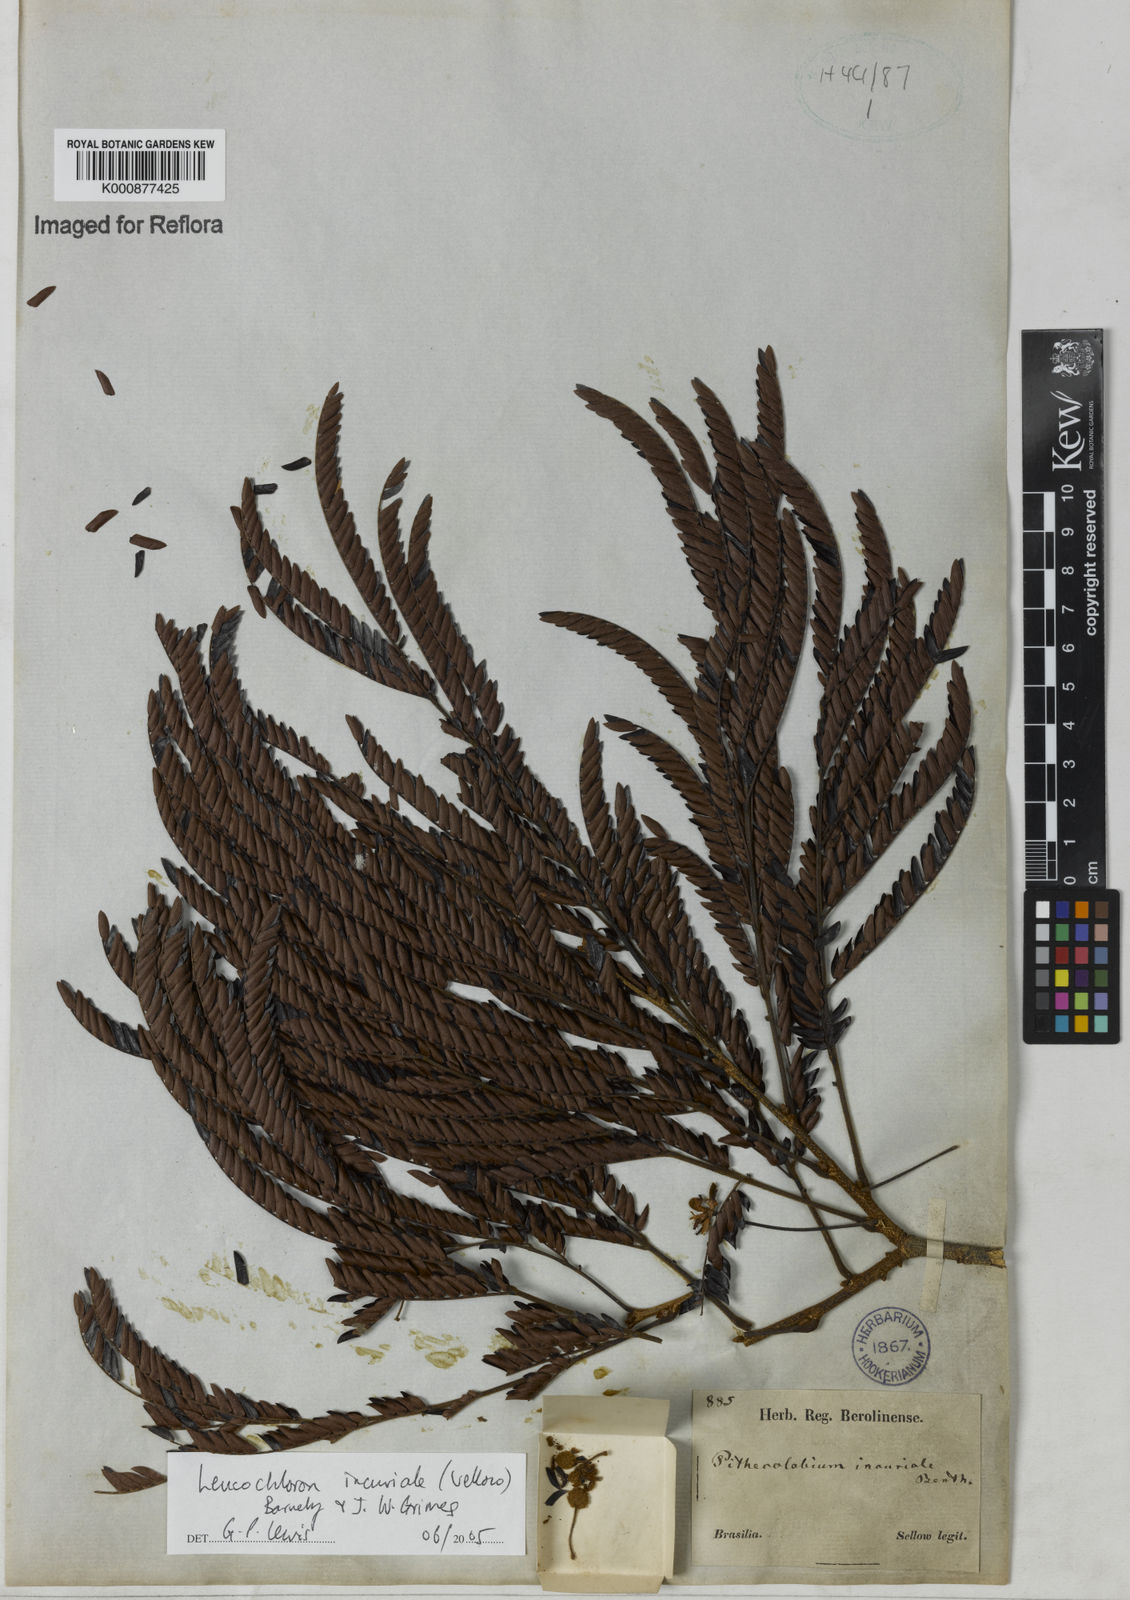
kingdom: Plantae
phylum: Tracheophyta
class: Magnoliopsida
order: Fabales
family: Fabaceae
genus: Leucochloron
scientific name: Leucochloron incuriale
